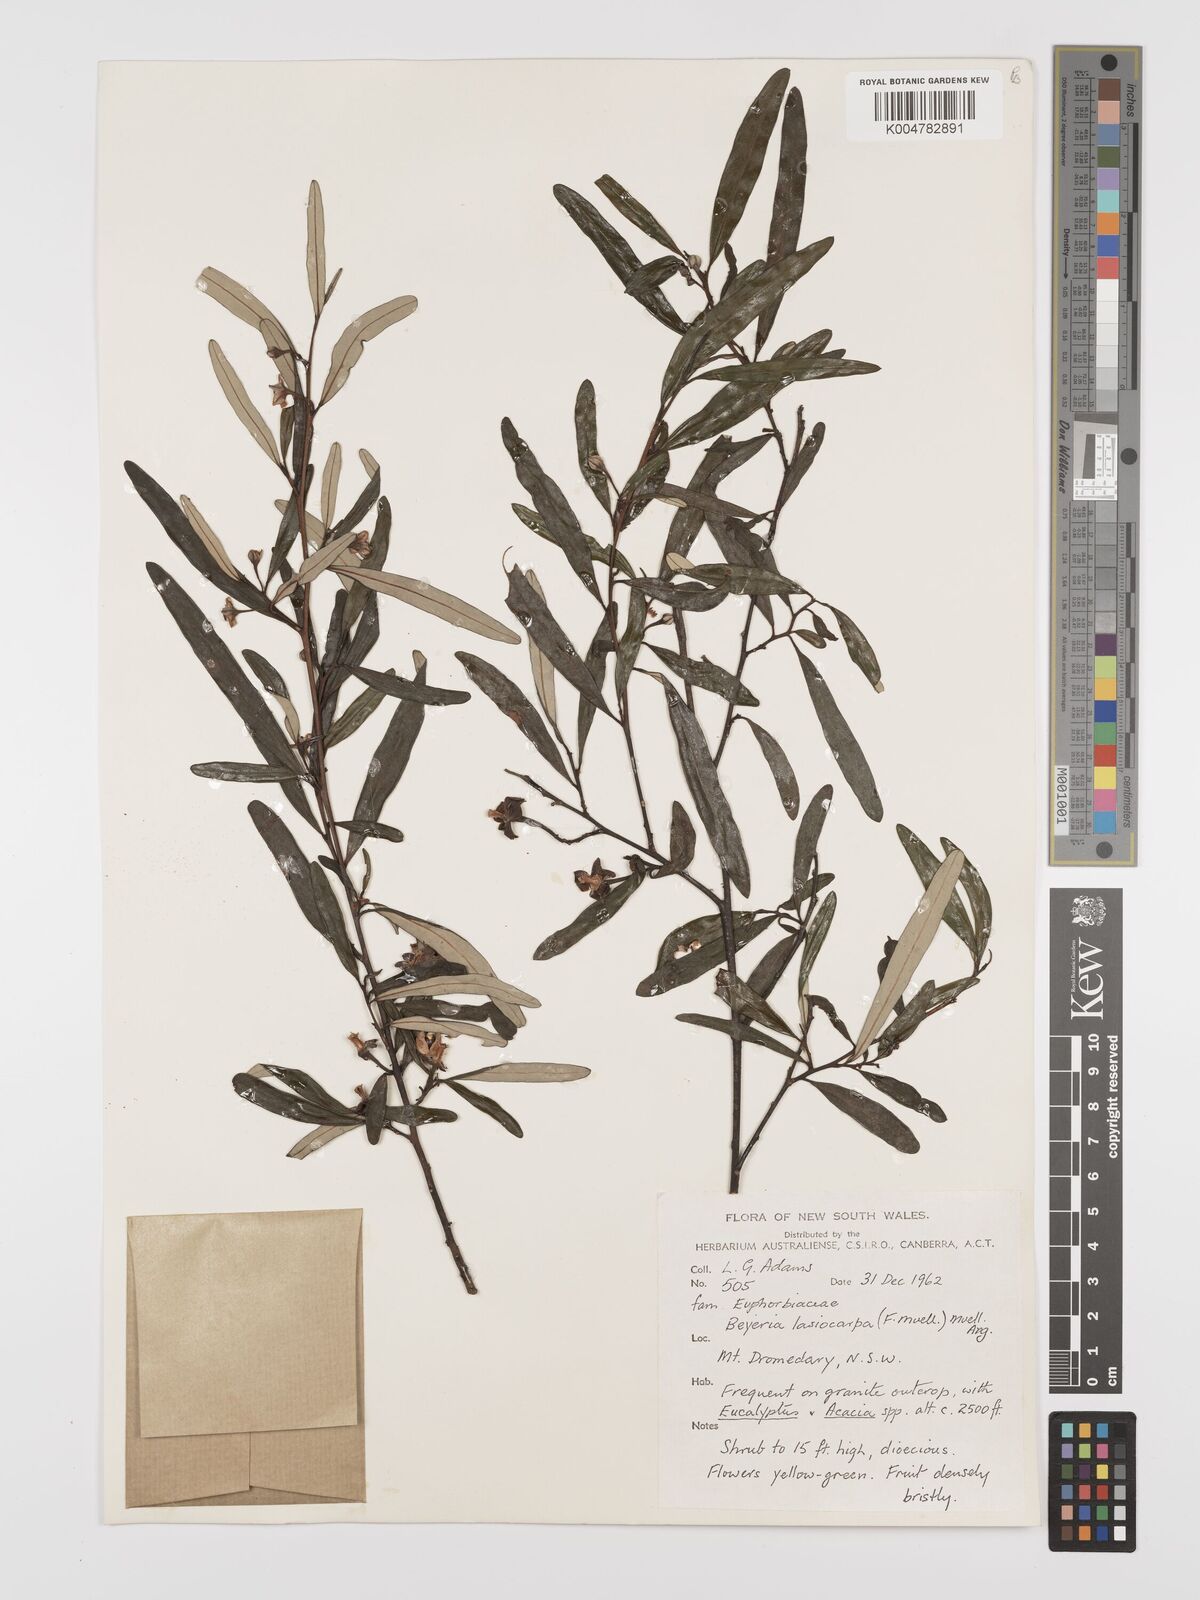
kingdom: Plantae
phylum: Tracheophyta
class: Magnoliopsida
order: Malpighiales
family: Euphorbiaceae
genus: Beyeria
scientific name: Beyeria lasiocarpa
